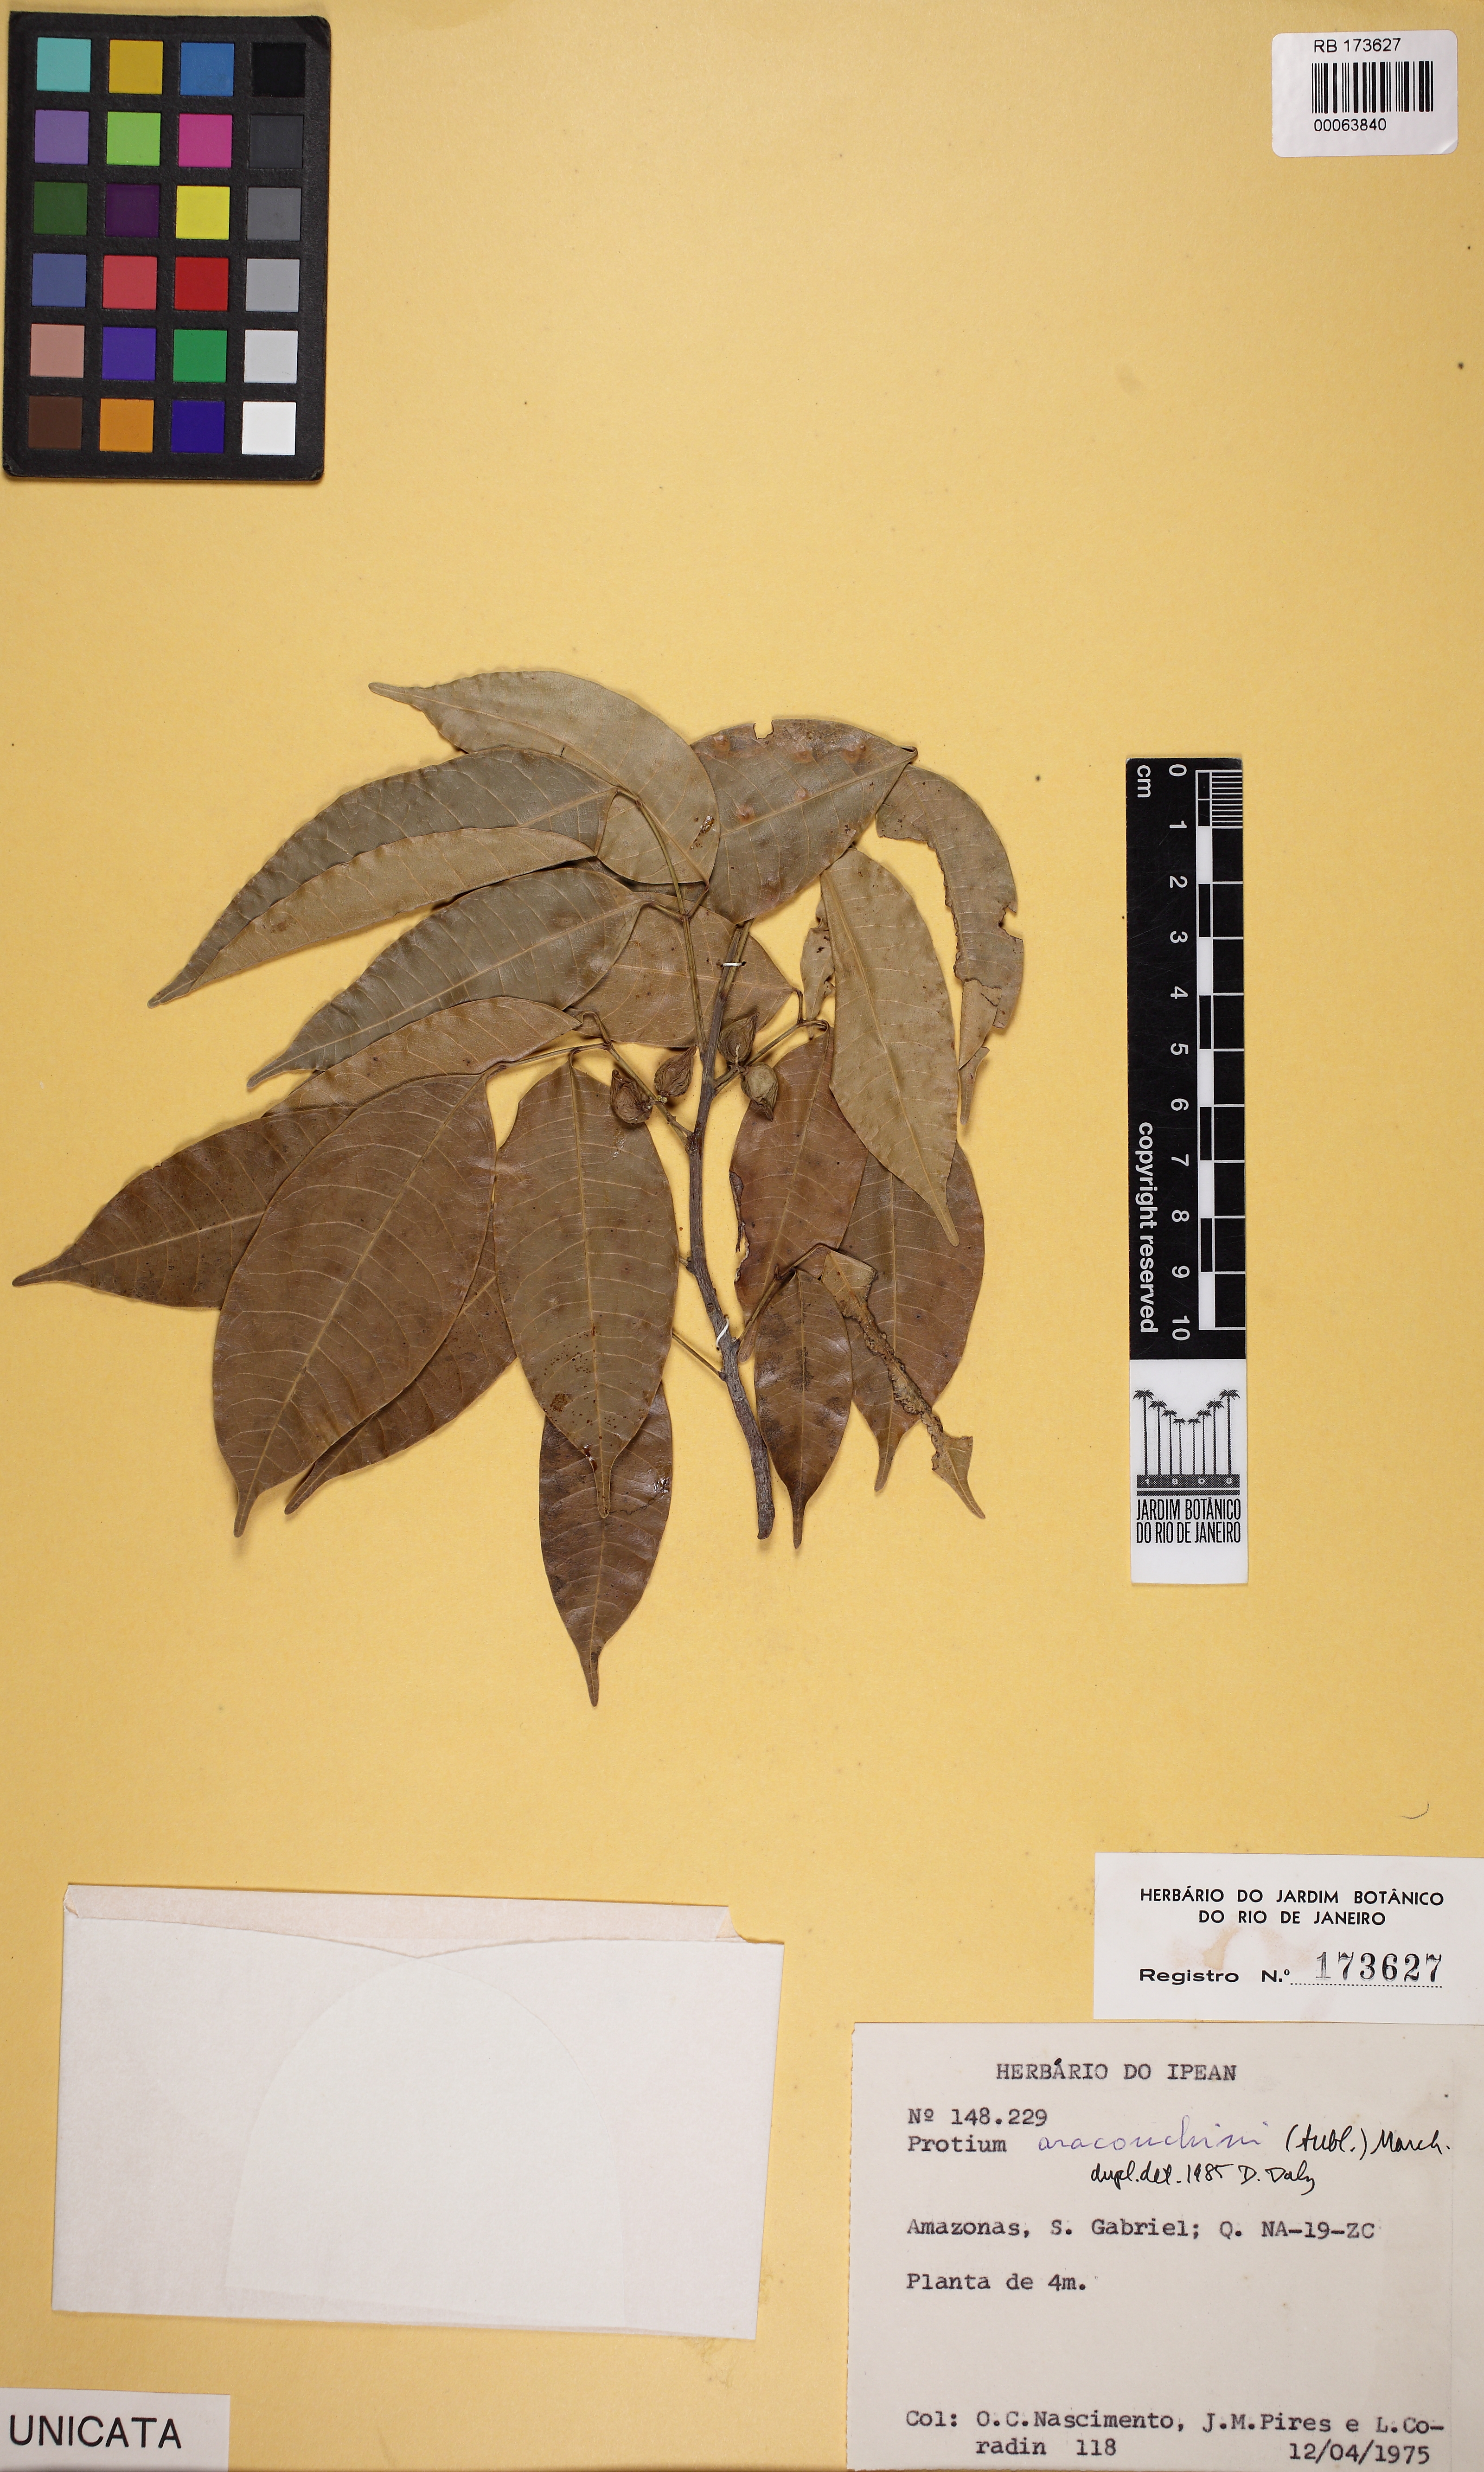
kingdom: Plantae
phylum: Tracheophyta
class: Magnoliopsida
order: Sapindales
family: Burseraceae
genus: Protium
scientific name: Protium aracouchini
